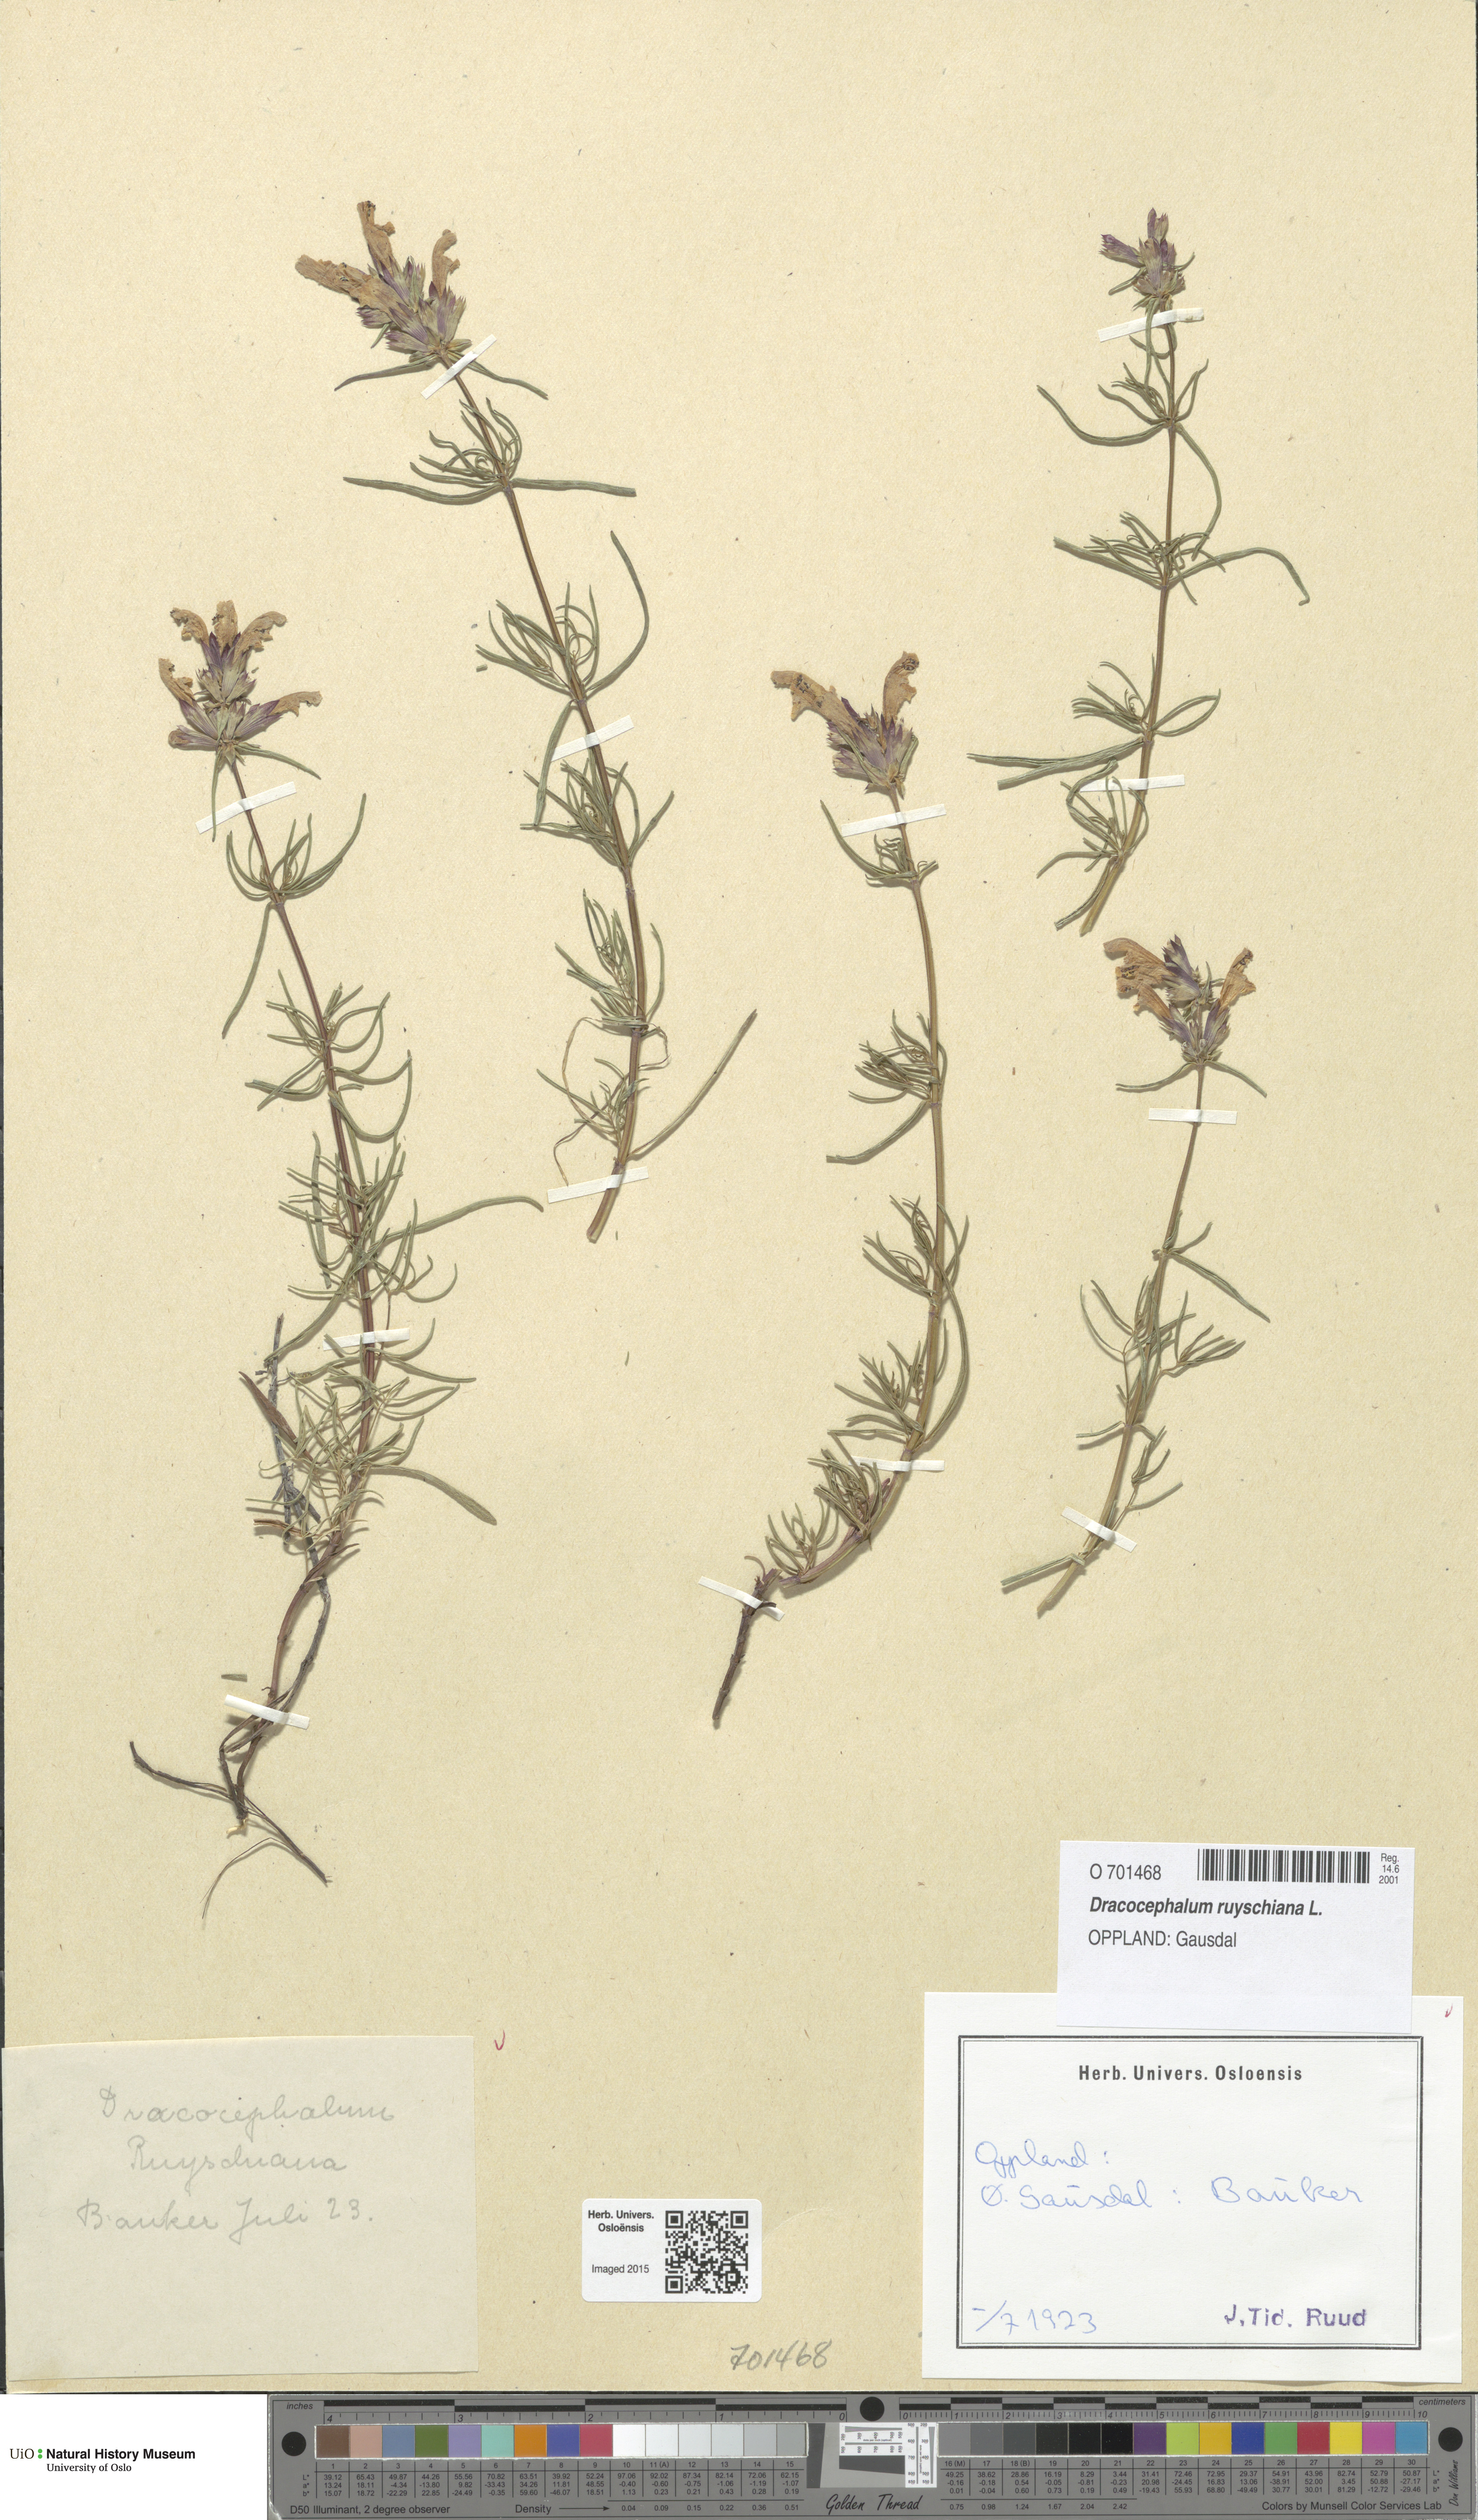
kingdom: Plantae
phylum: Tracheophyta
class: Magnoliopsida
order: Lamiales
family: Lamiaceae
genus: Dracocephalum
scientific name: Dracocephalum ruyschiana
